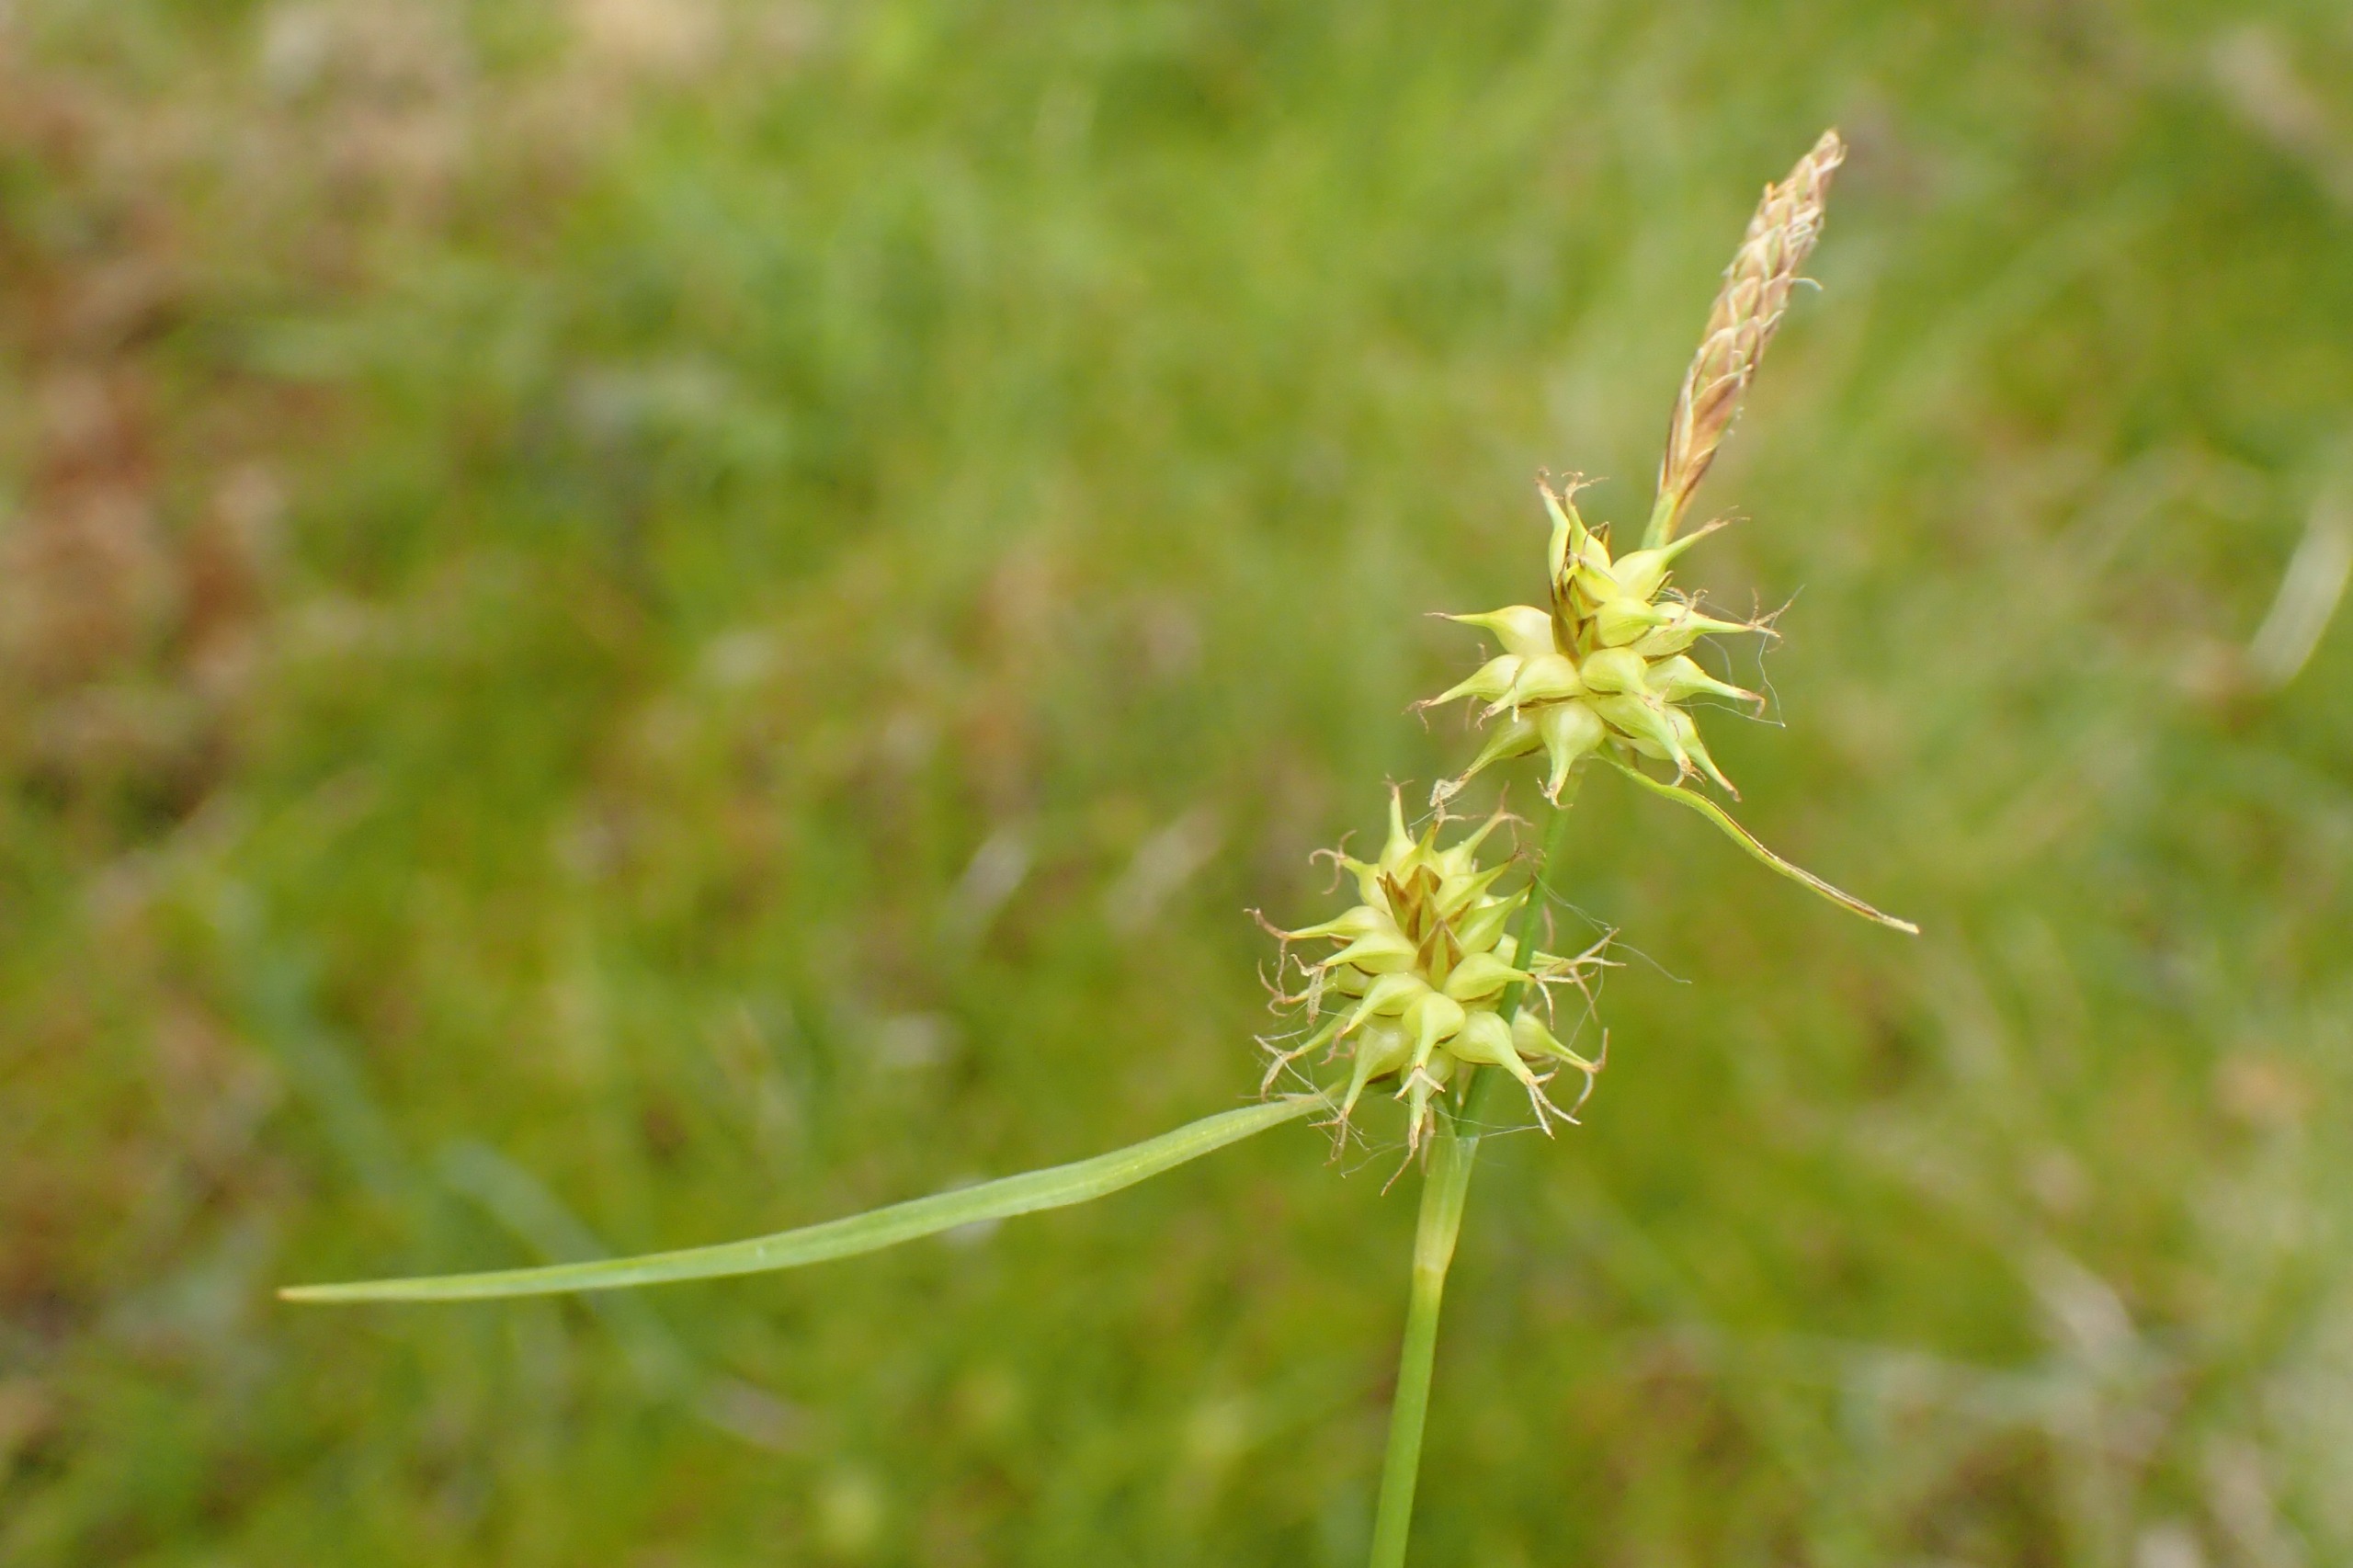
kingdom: Plantae
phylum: Tracheophyta
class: Liliopsida
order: Poales
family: Cyperaceae
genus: Carex
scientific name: Carex lepidocarpa
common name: Krognæb-star
